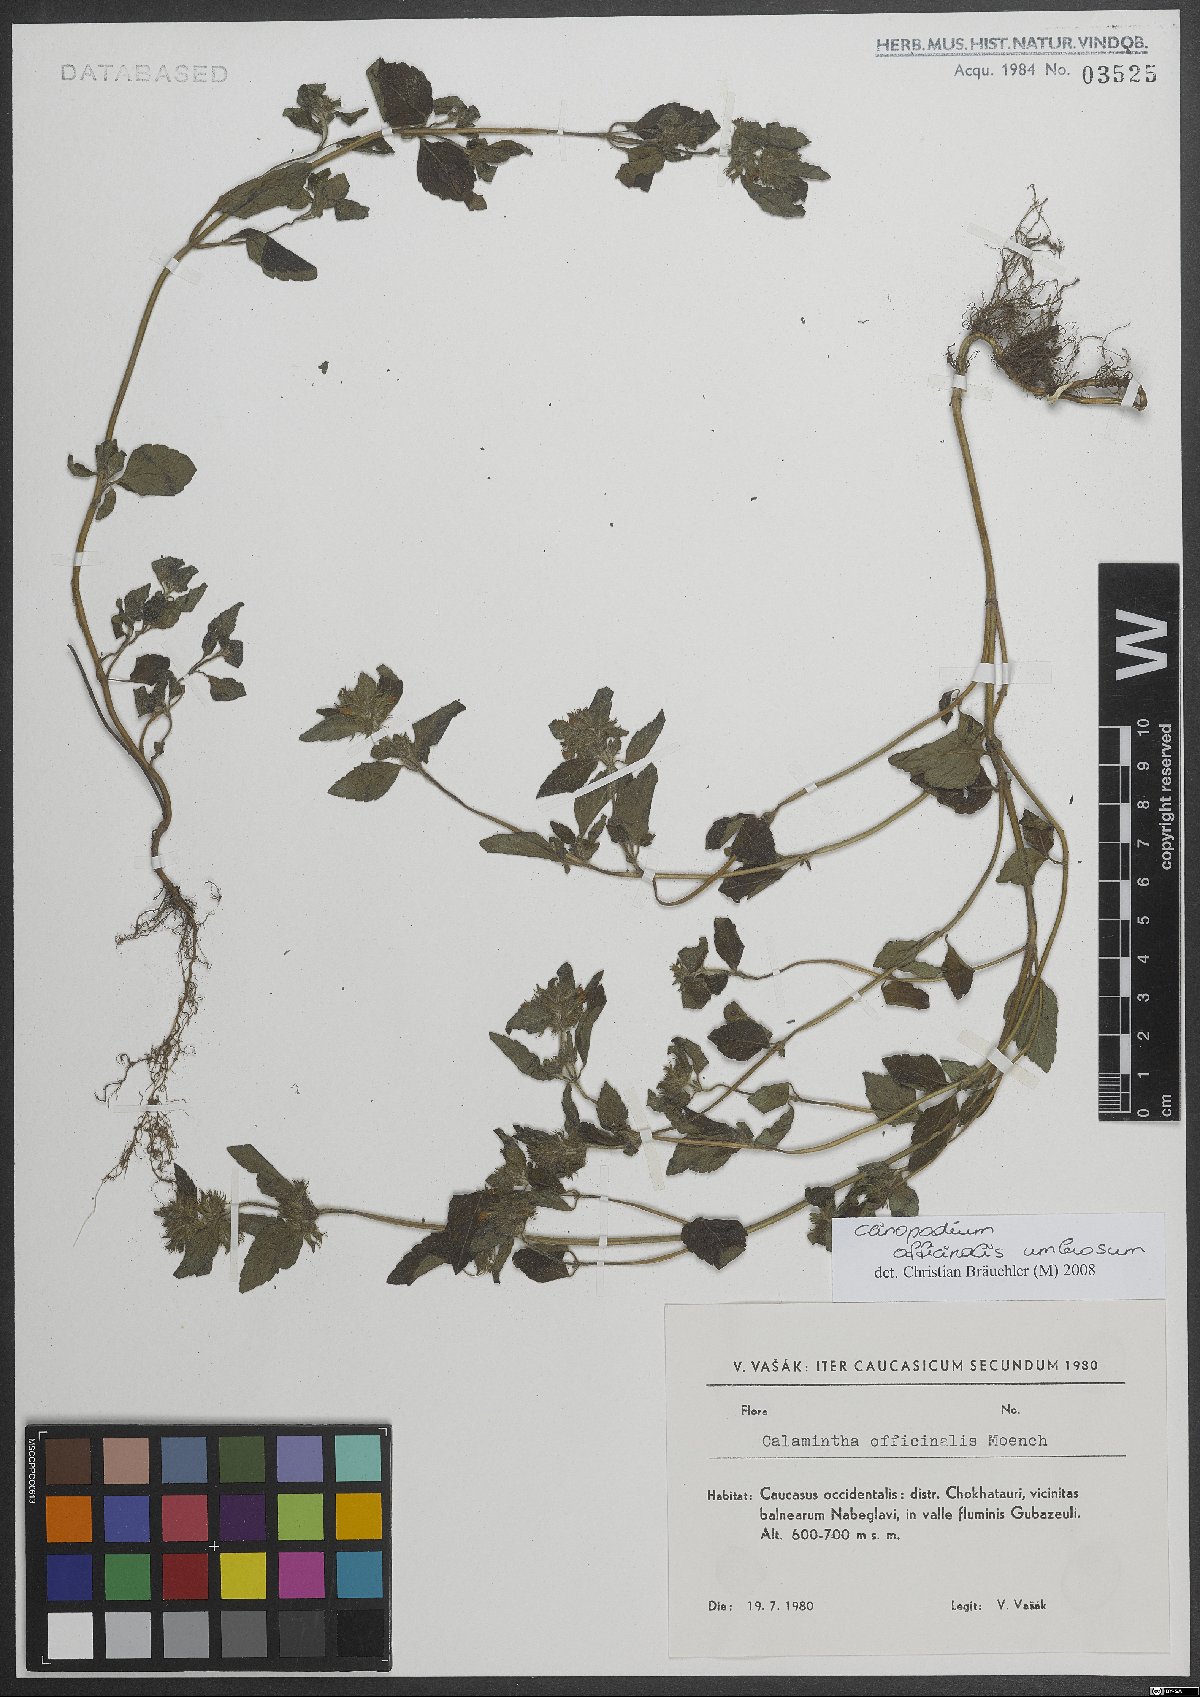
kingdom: Plantae
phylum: Tracheophyta
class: Magnoliopsida
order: Lamiales
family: Lamiaceae
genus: Clinopodium
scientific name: Clinopodium nepeta
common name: Lesser calamint
